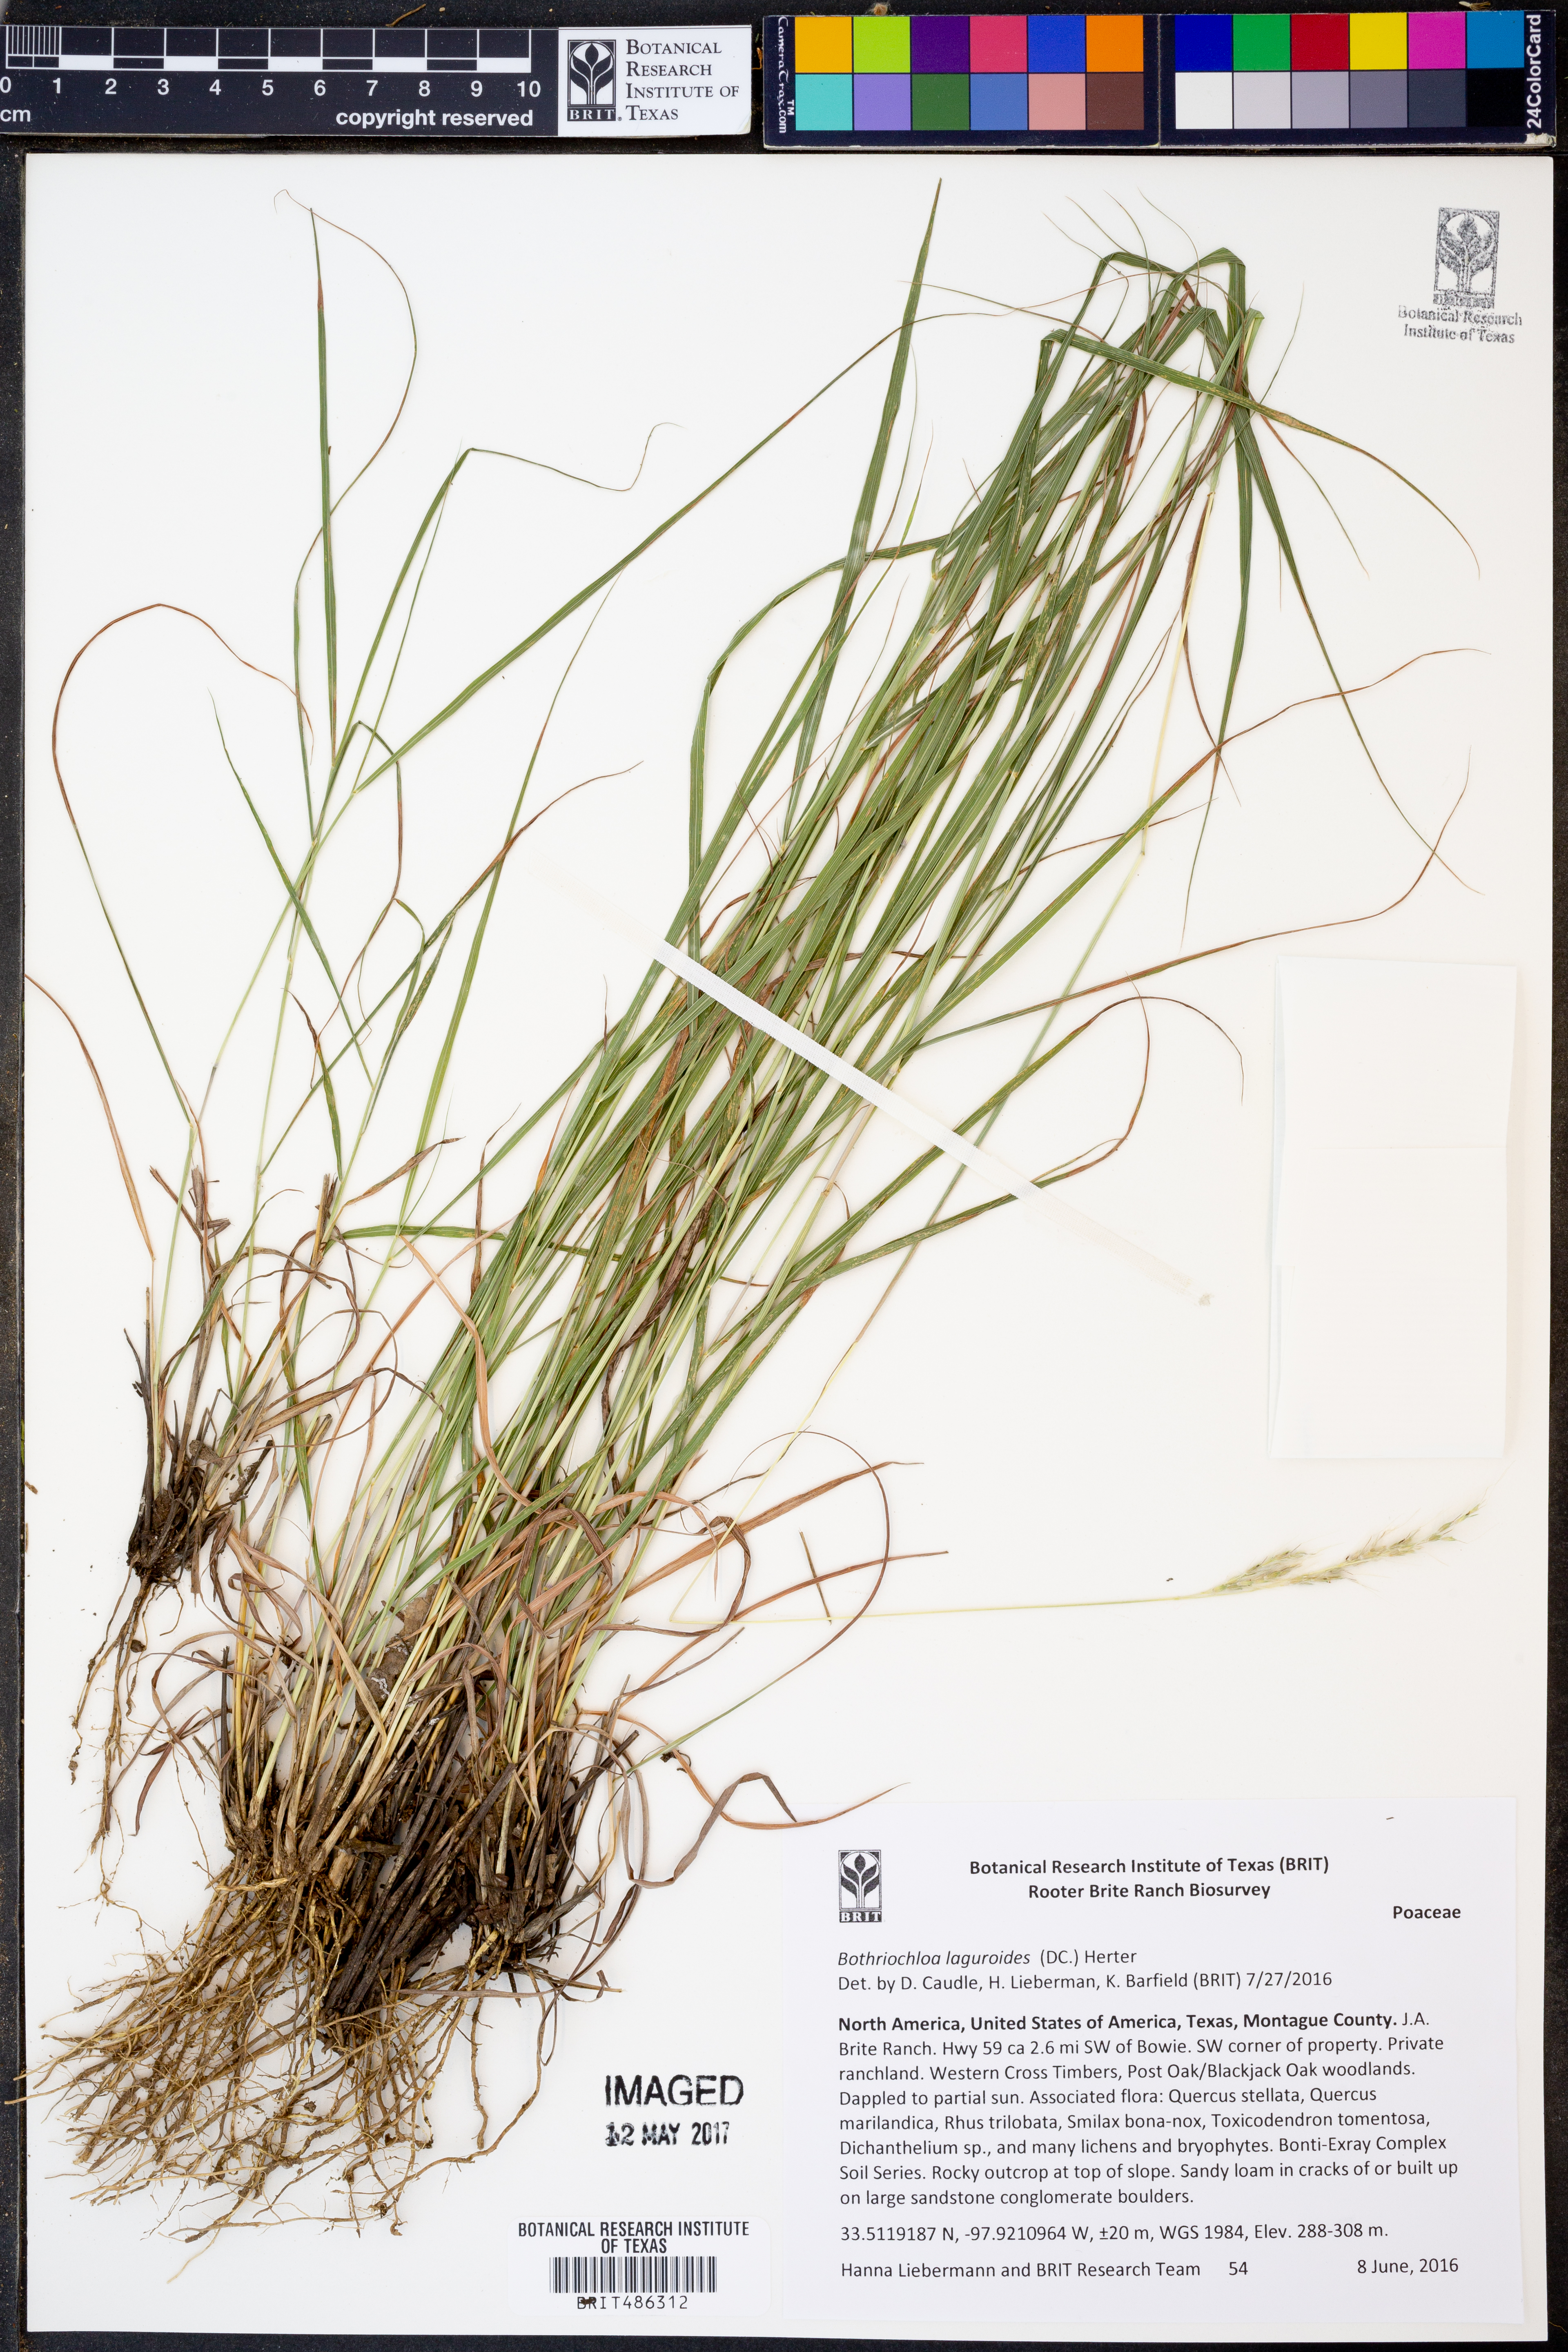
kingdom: Plantae
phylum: Tracheophyta
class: Liliopsida
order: Poales
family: Poaceae
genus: Bothriochloa
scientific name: Bothriochloa laguroides
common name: Silver bluestem
